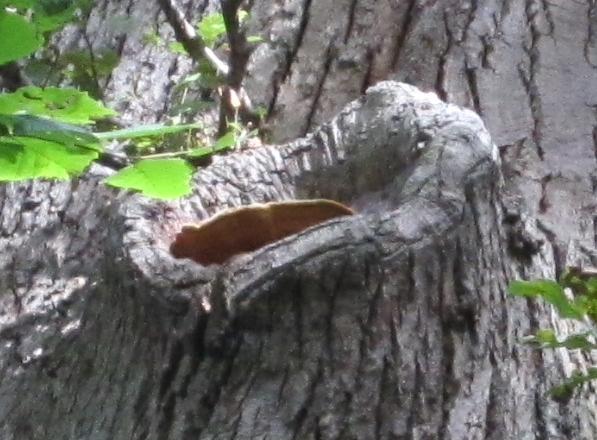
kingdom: Fungi
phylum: Basidiomycota
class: Agaricomycetes
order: Polyporales
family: Phanerochaetaceae
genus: Hapalopilus
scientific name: Hapalopilus croceus
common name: safrangul pragtporesvamp
